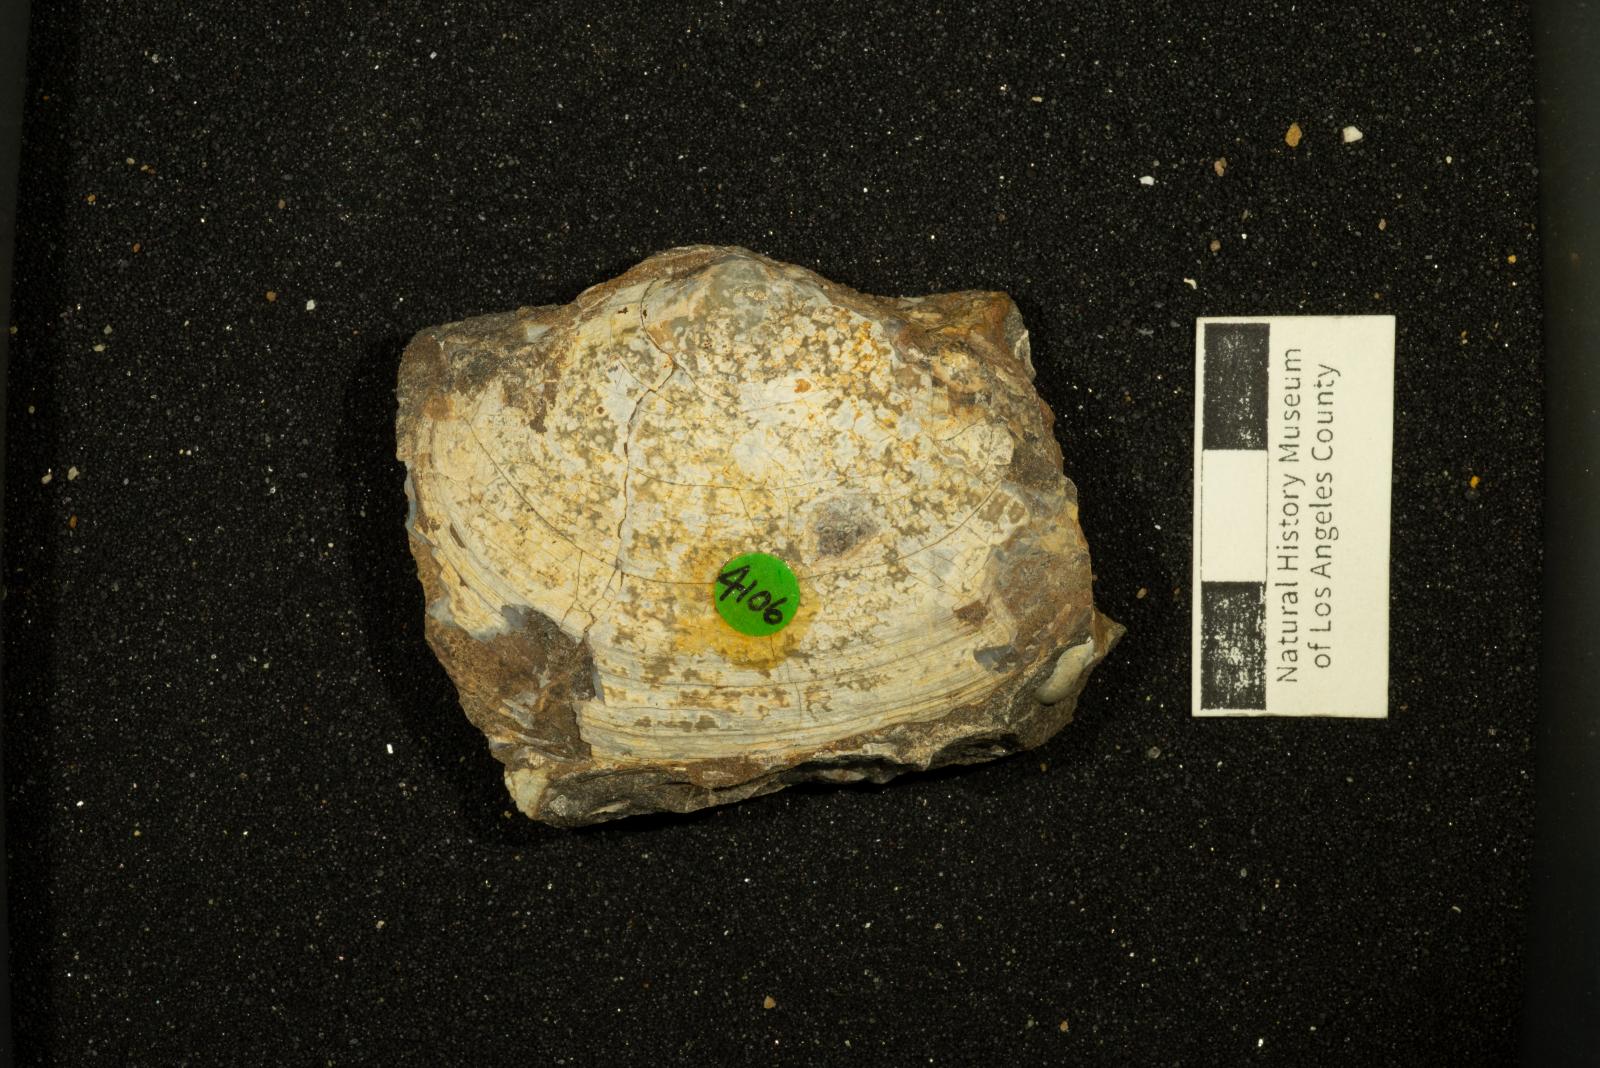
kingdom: Animalia
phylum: Mollusca
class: Bivalvia
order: Venerida
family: Mactridae
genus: Willimactra
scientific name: Willimactra popenoei
